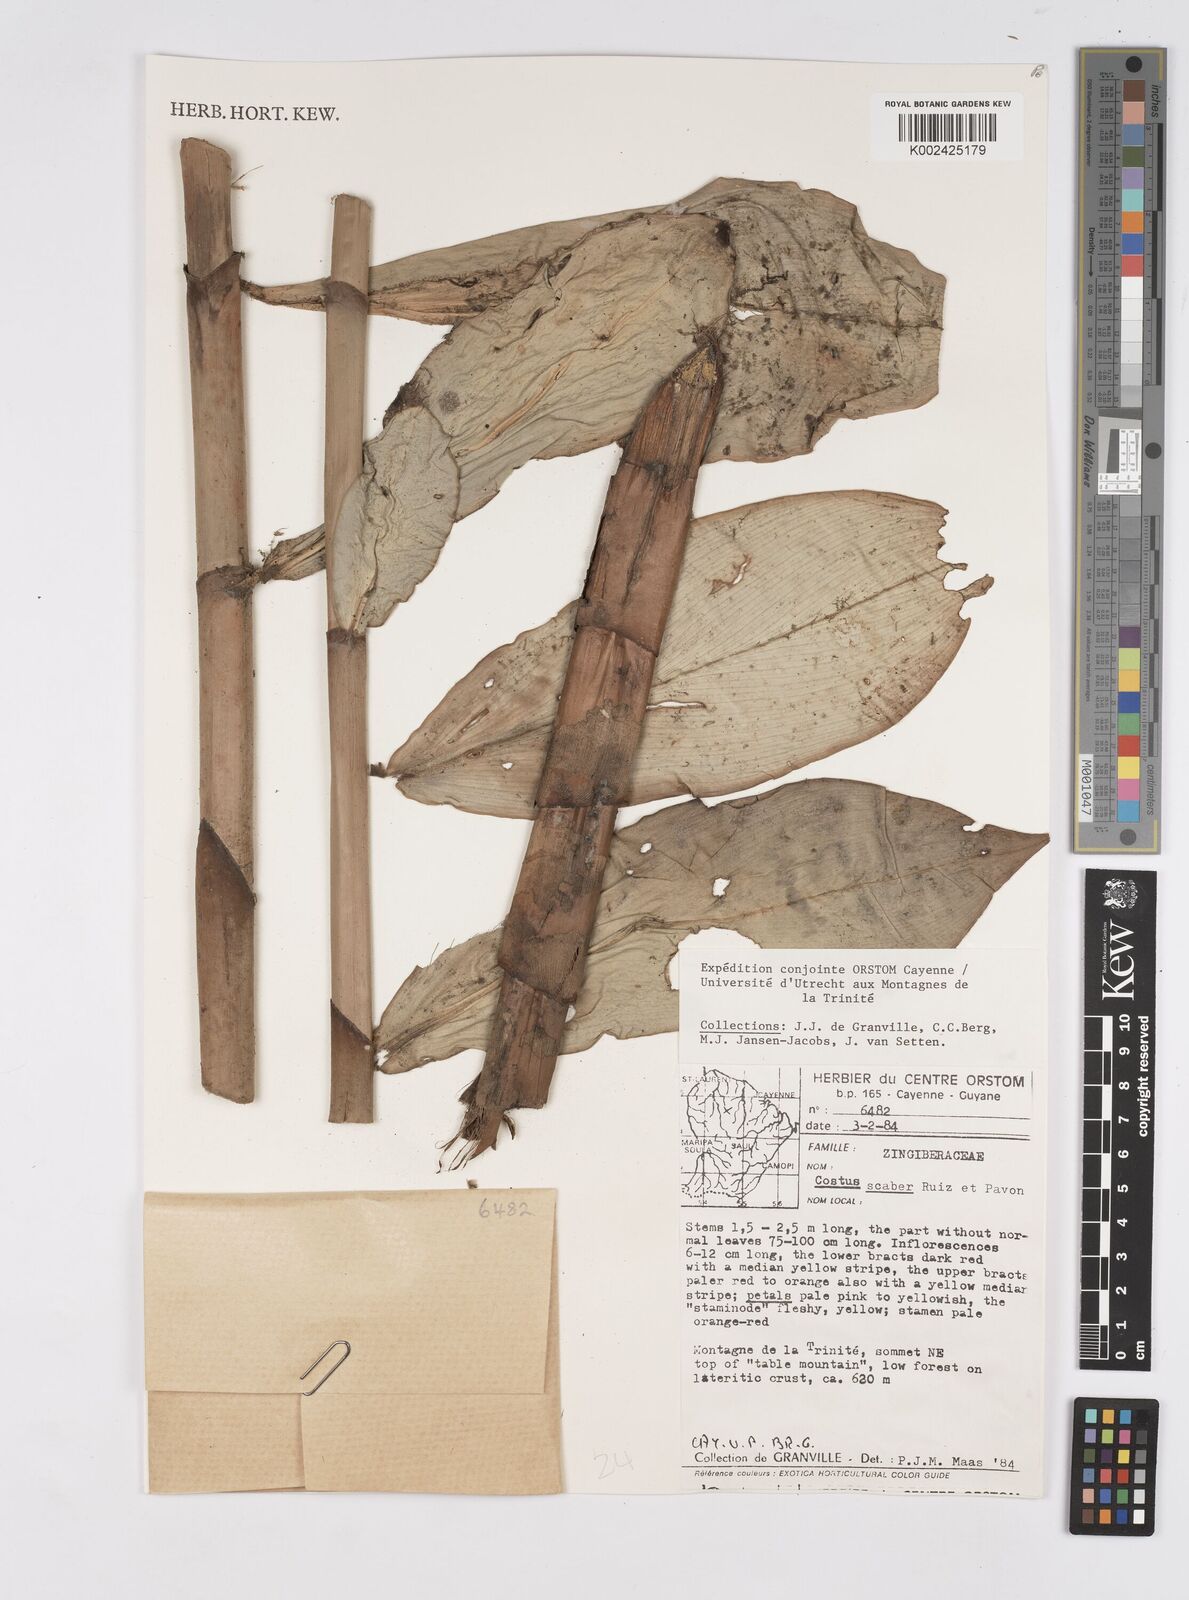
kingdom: Plantae
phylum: Tracheophyta
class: Liliopsida
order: Zingiberales
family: Costaceae
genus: Costus
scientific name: Costus scaber
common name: Spiral head ginger
